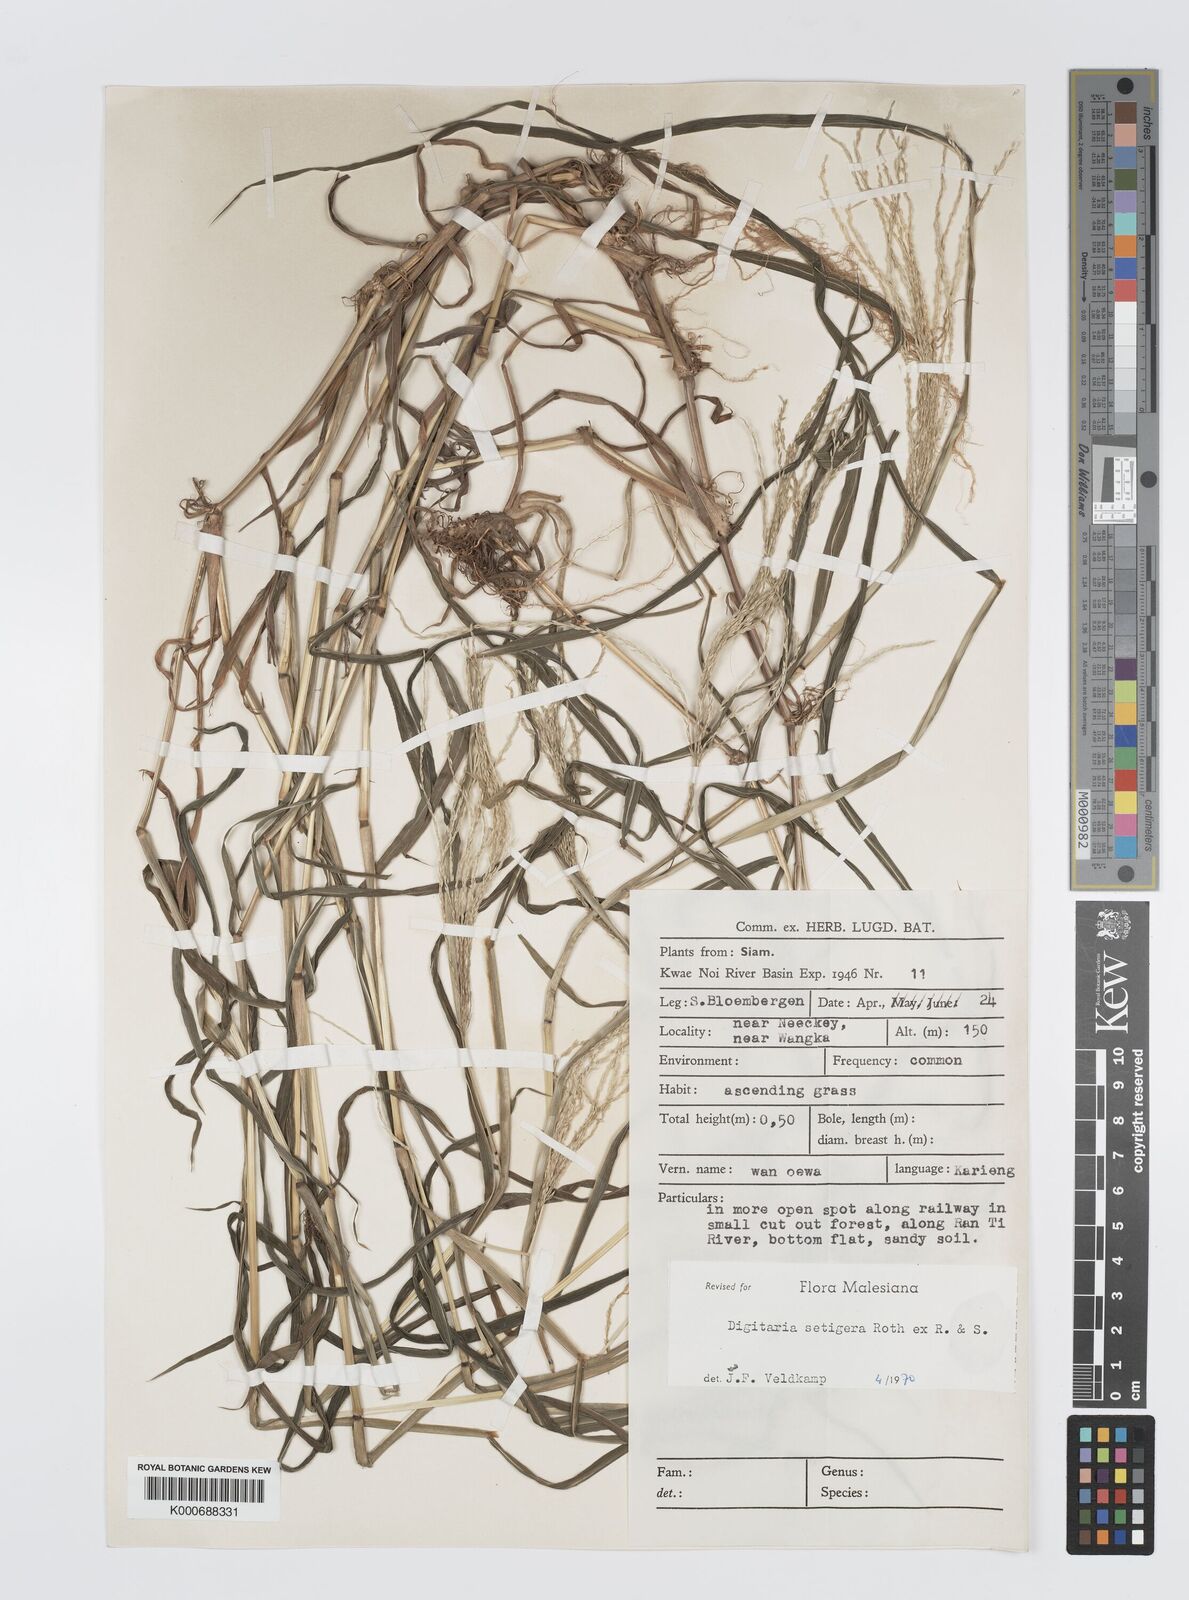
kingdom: Plantae
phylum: Tracheophyta
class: Liliopsida
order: Poales
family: Poaceae
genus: Digitaria
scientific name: Digitaria
